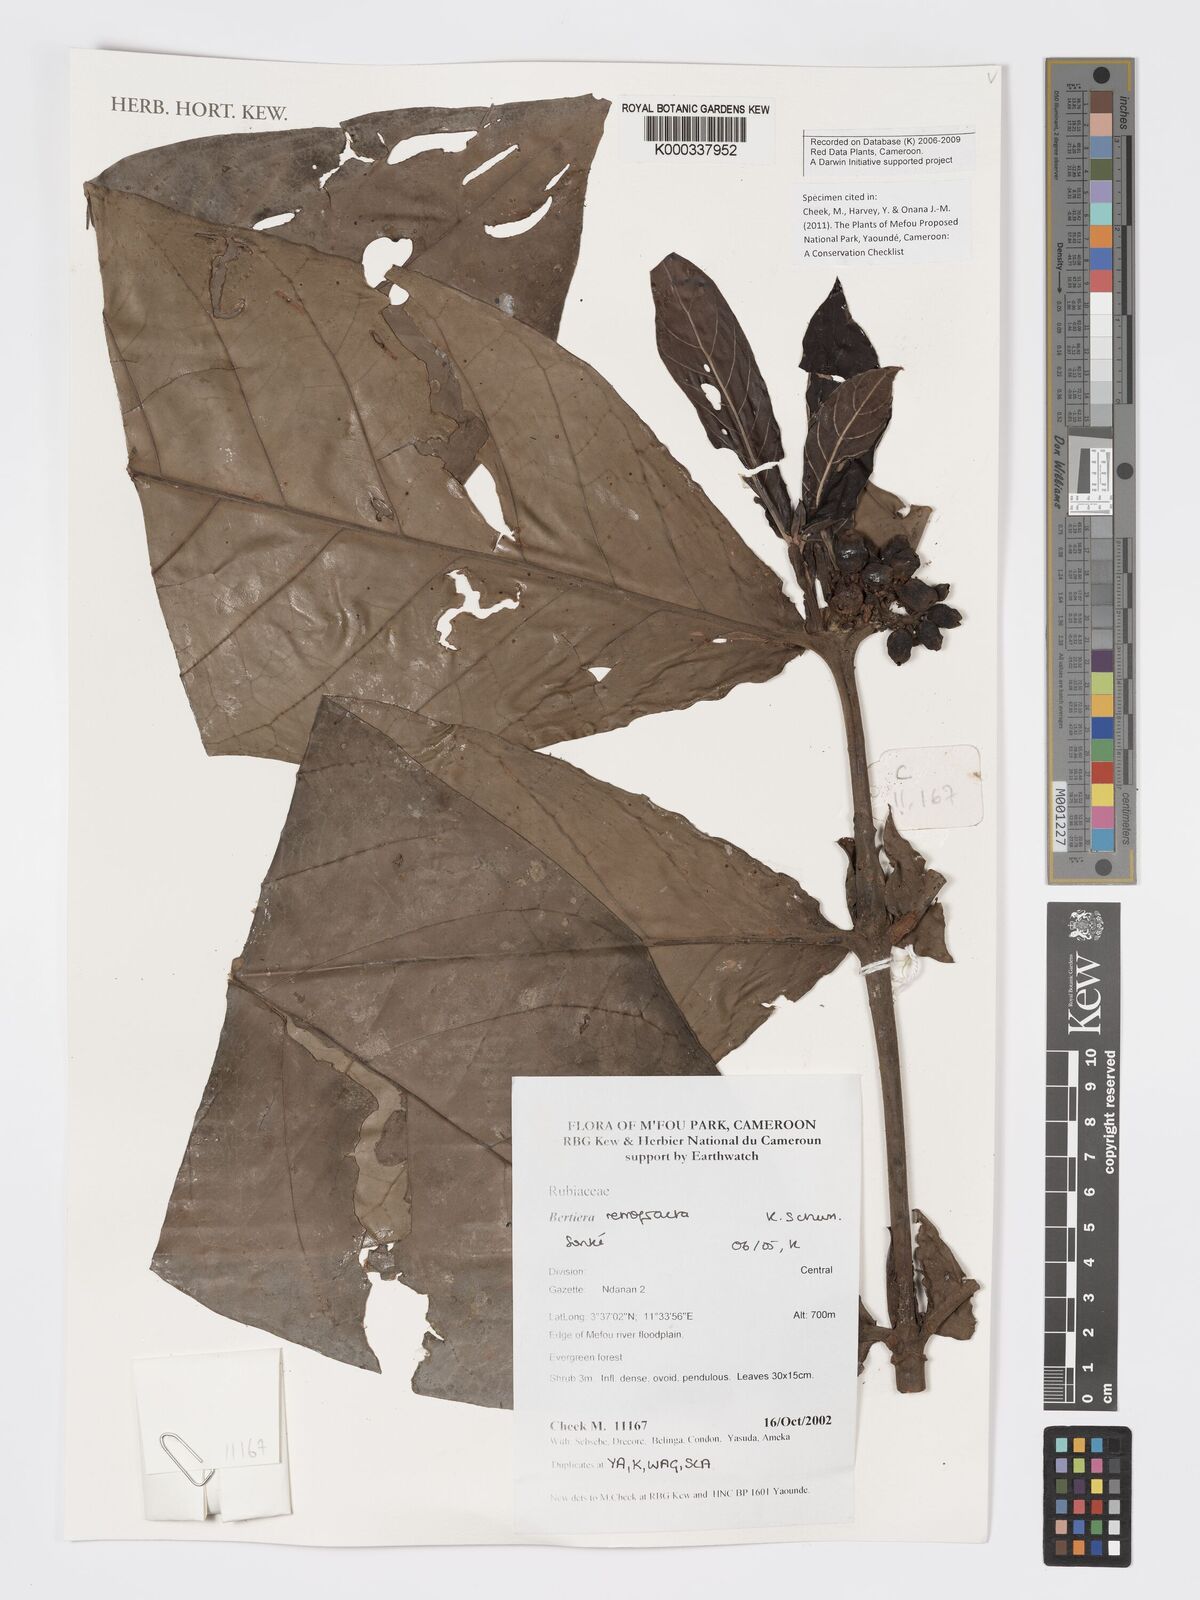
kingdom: Plantae
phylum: Tracheophyta
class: Magnoliopsida
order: Gentianales
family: Rubiaceae
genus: Bertiera
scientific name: Bertiera retrofracta
